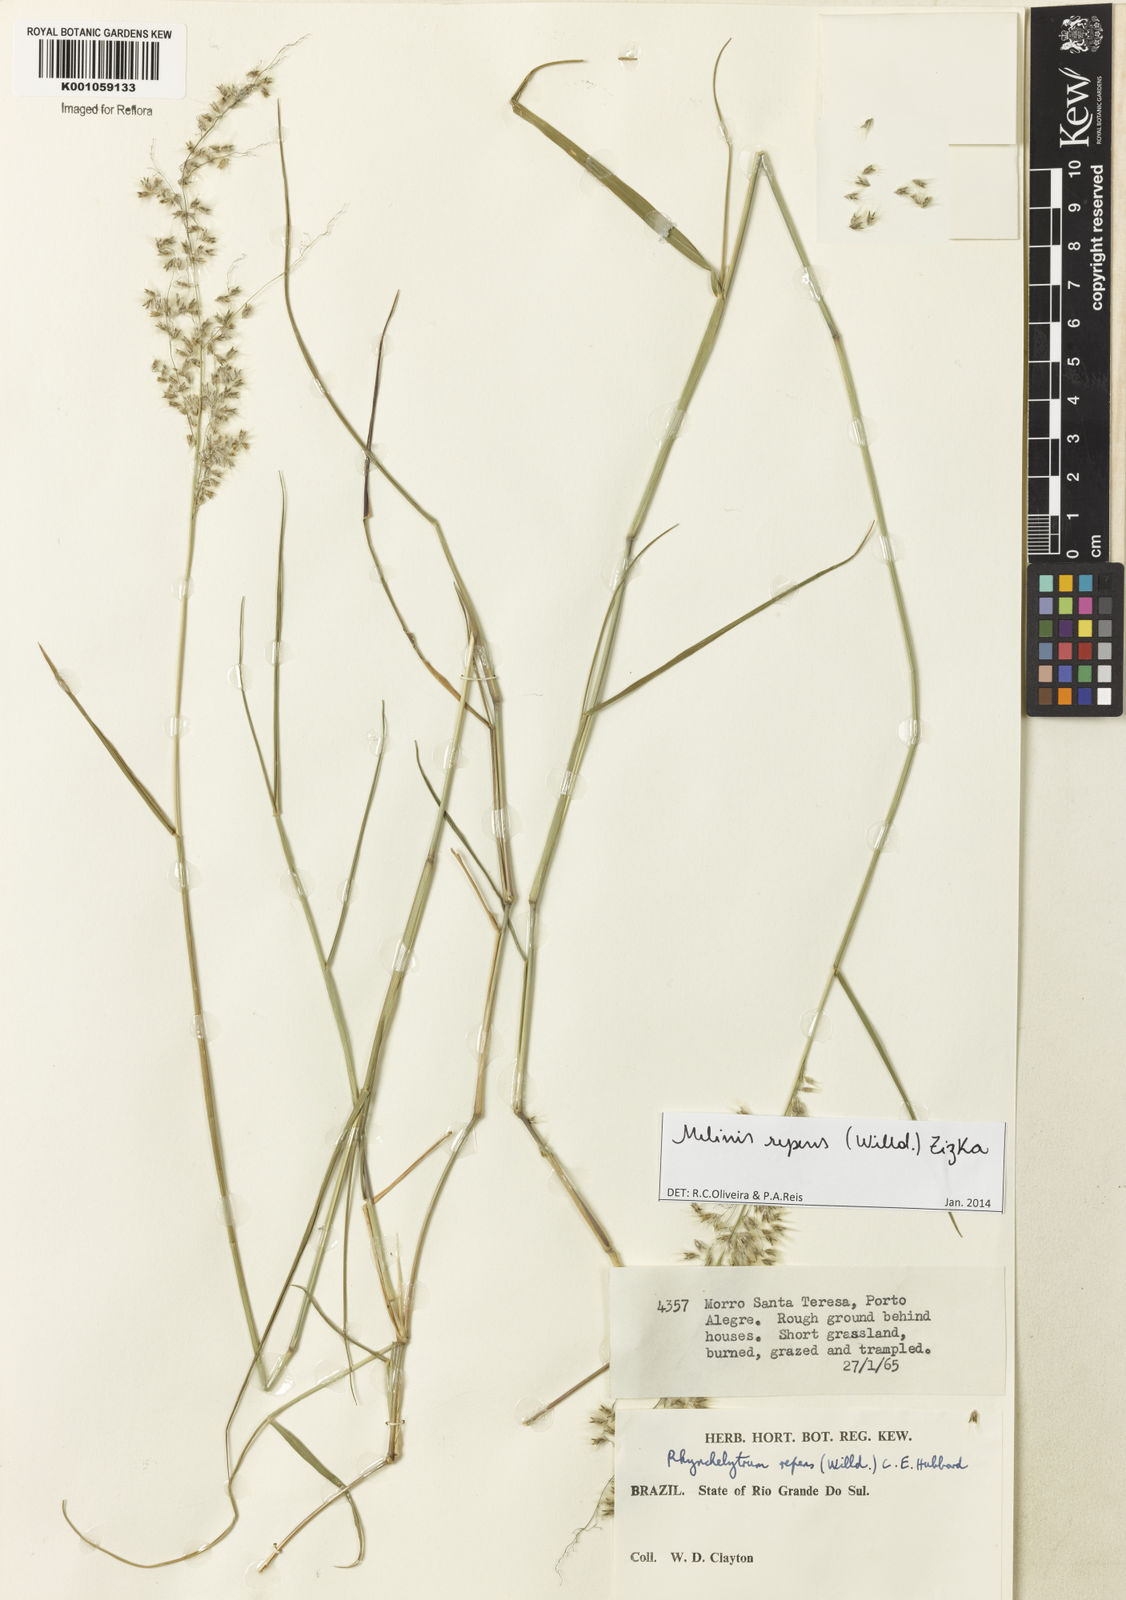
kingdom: Plantae
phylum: Tracheophyta
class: Liliopsida
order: Poales
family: Poaceae
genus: Melinis
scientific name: Melinis repens
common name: Rose natal grass
